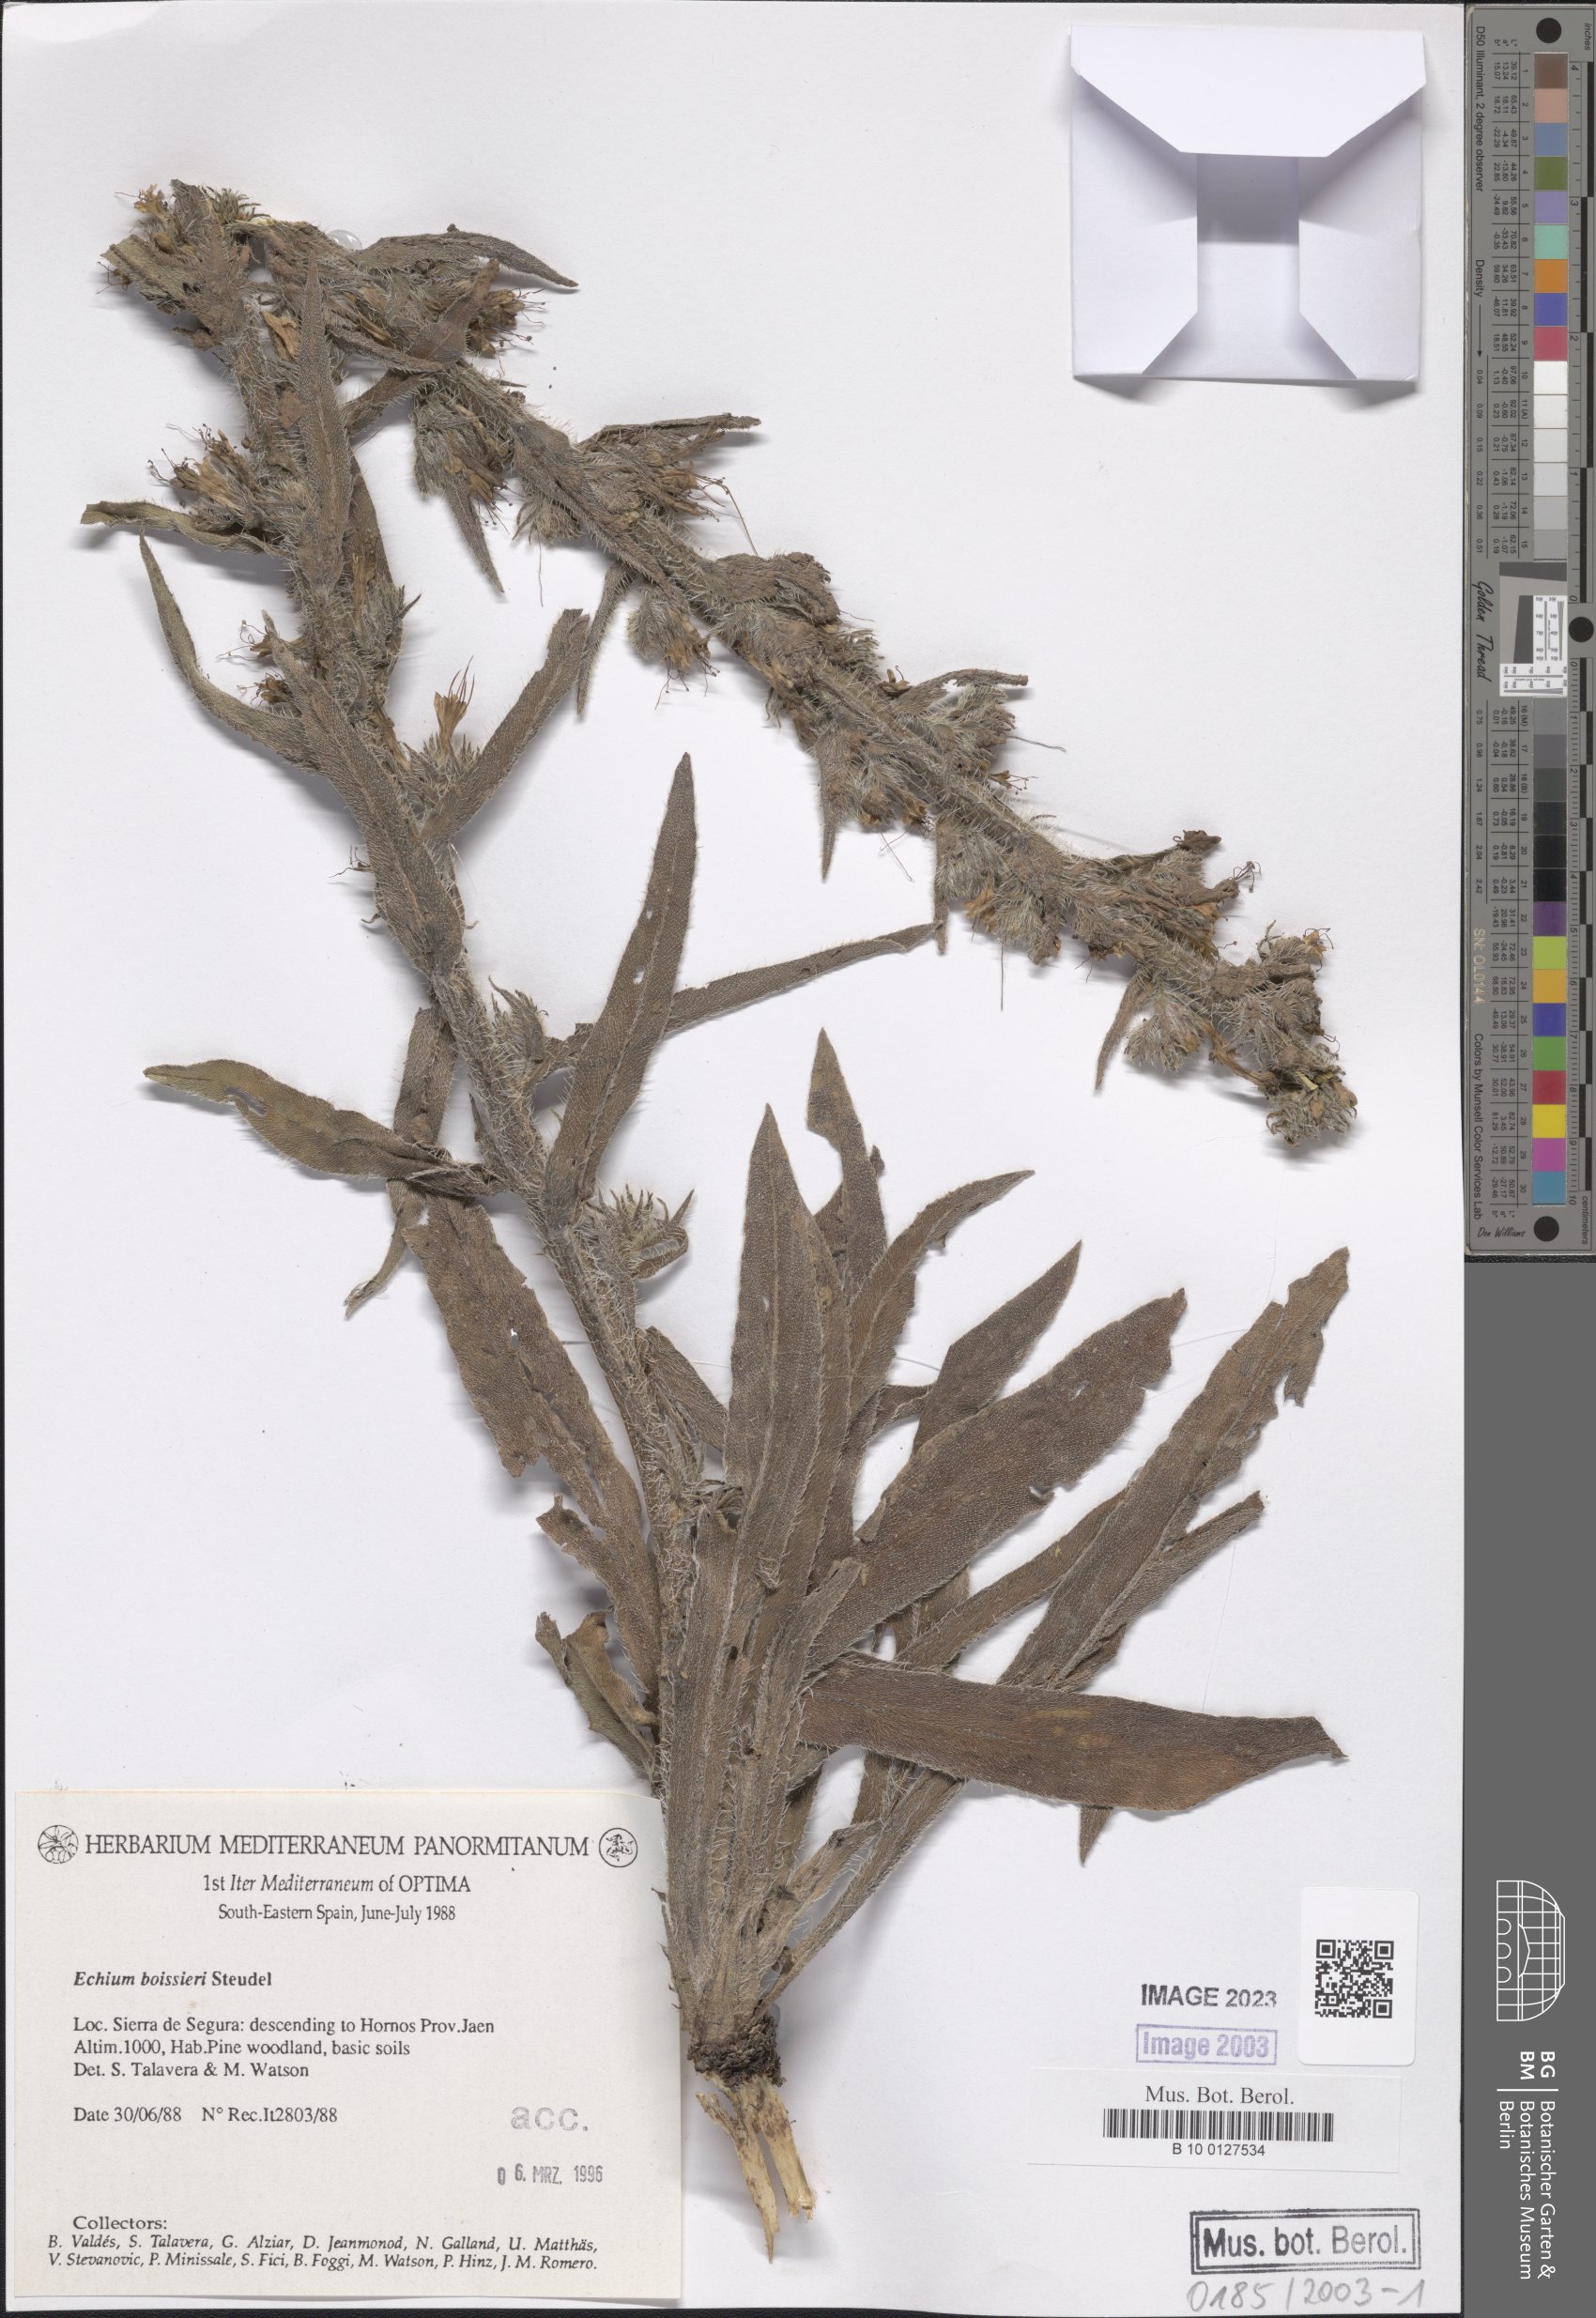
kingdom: Plantae
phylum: Tracheophyta
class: Magnoliopsida
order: Boraginales
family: Boraginaceae
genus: Echium
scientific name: Echium boissieri
